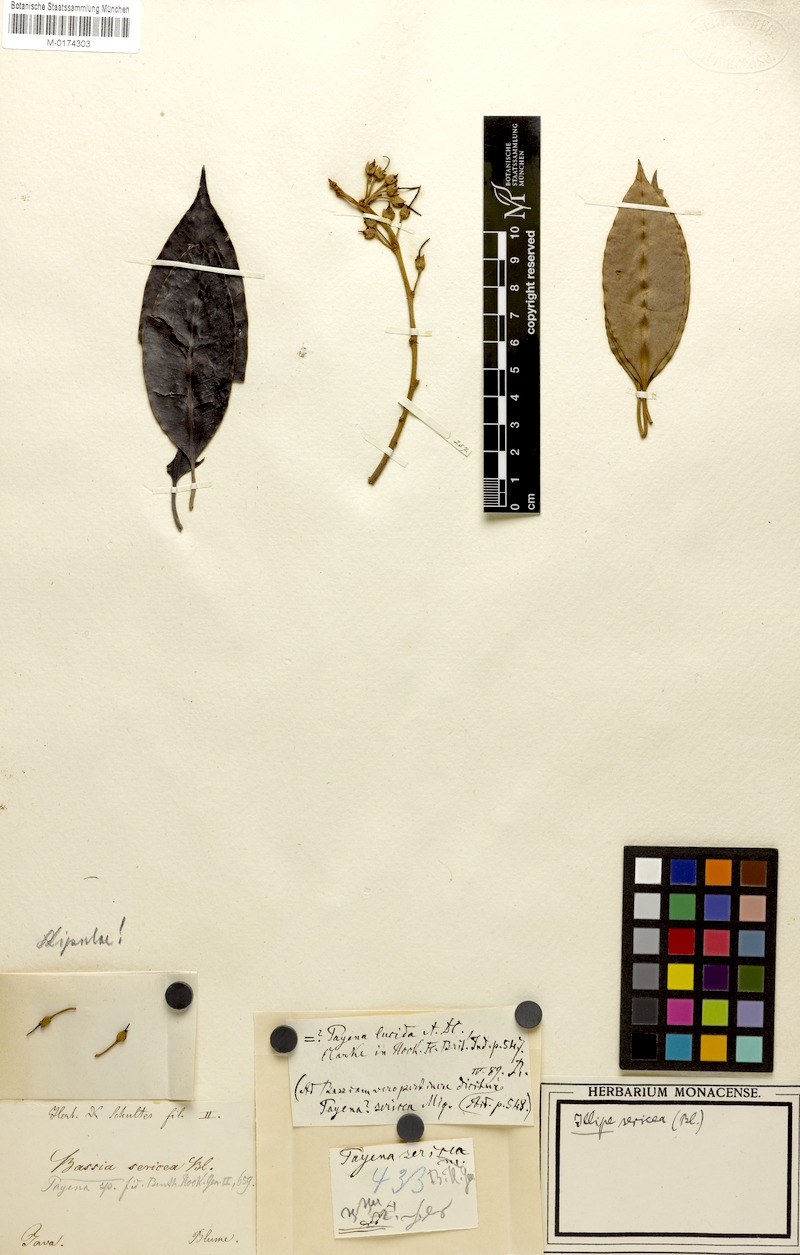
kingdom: Plantae
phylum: Tracheophyta
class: Magnoliopsida
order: Ericales
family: Sapotaceae
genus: Payena
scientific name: Payena acuminata
